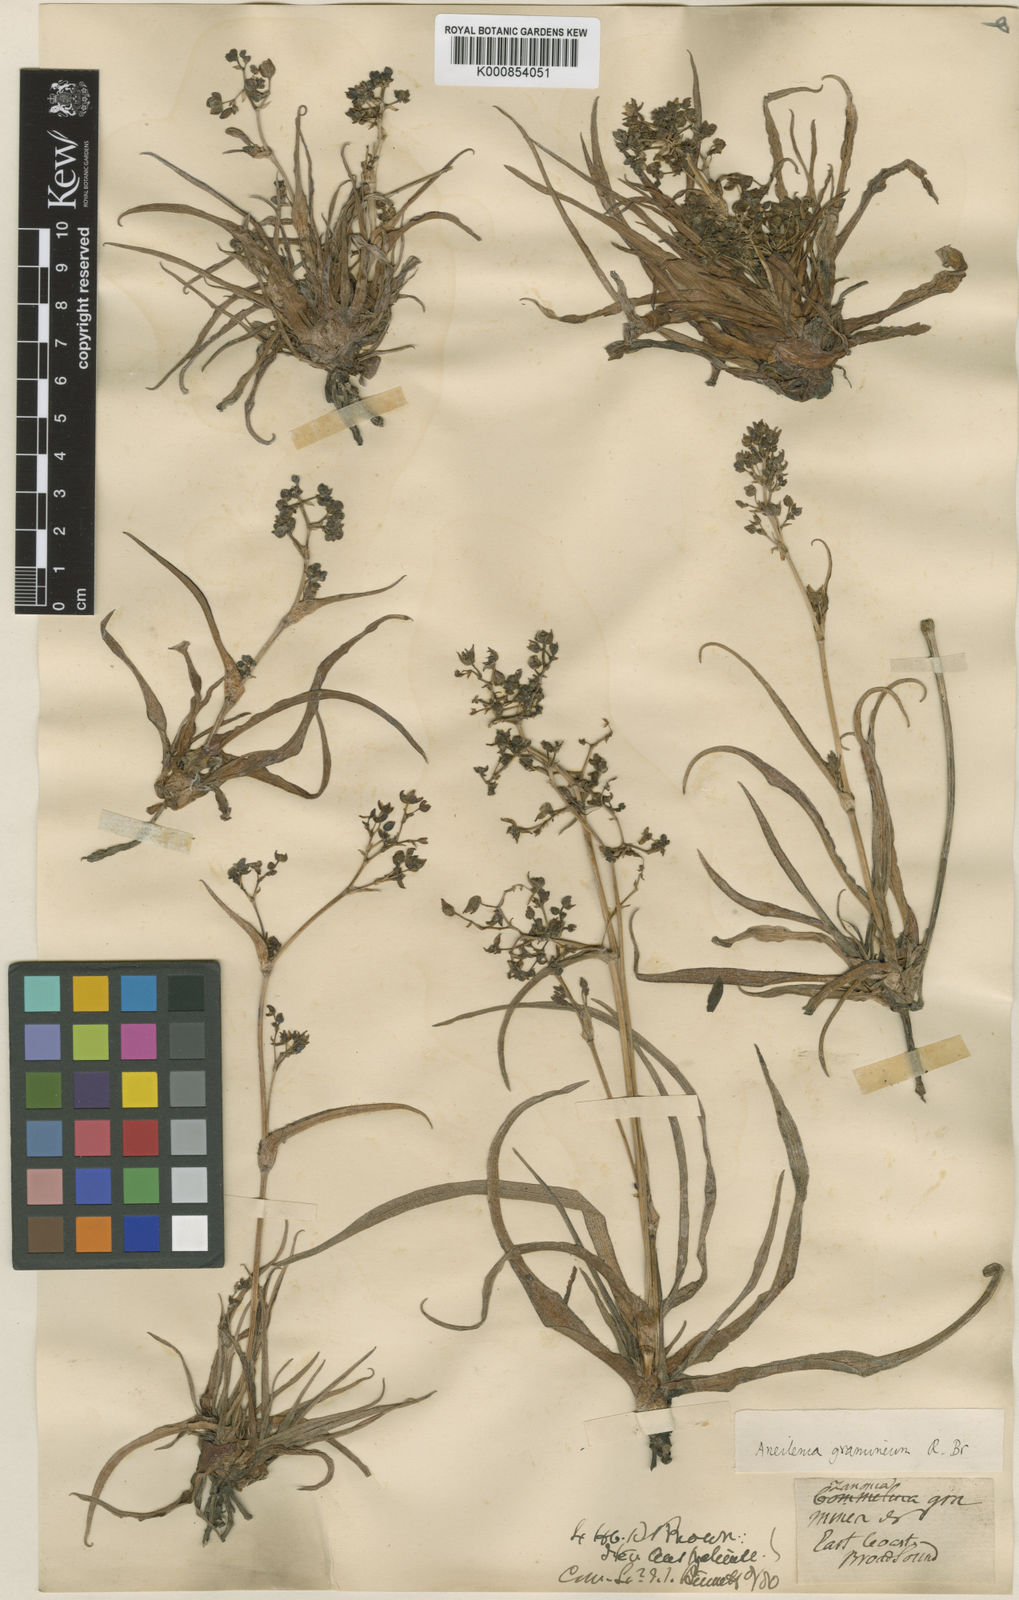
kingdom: Plantae
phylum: Tracheophyta
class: Liliopsida
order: Commelinales
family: Commelinaceae
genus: Murdannia
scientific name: Murdannia
